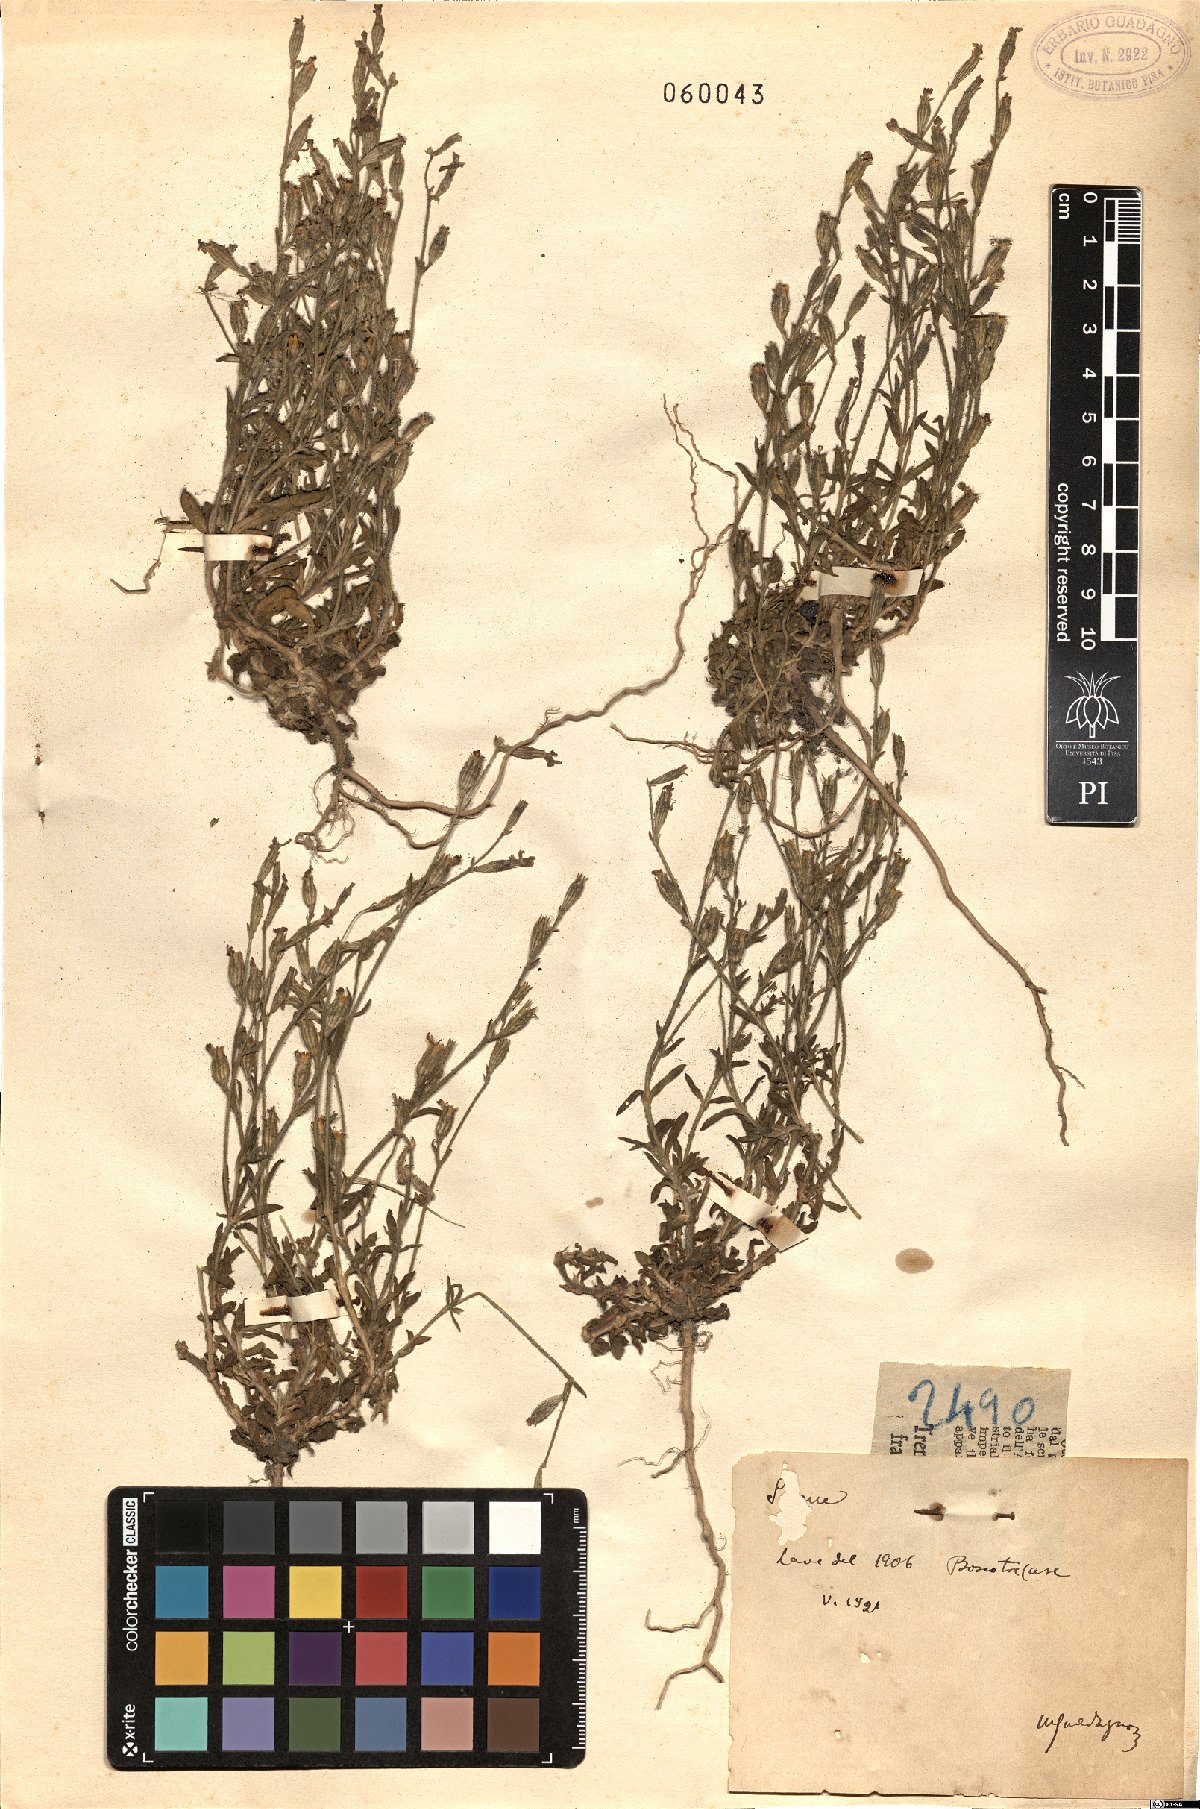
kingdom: Plantae
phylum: Tracheophyta
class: Magnoliopsida
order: Caryophyllales
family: Caryophyllaceae
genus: Silene
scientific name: Silene
